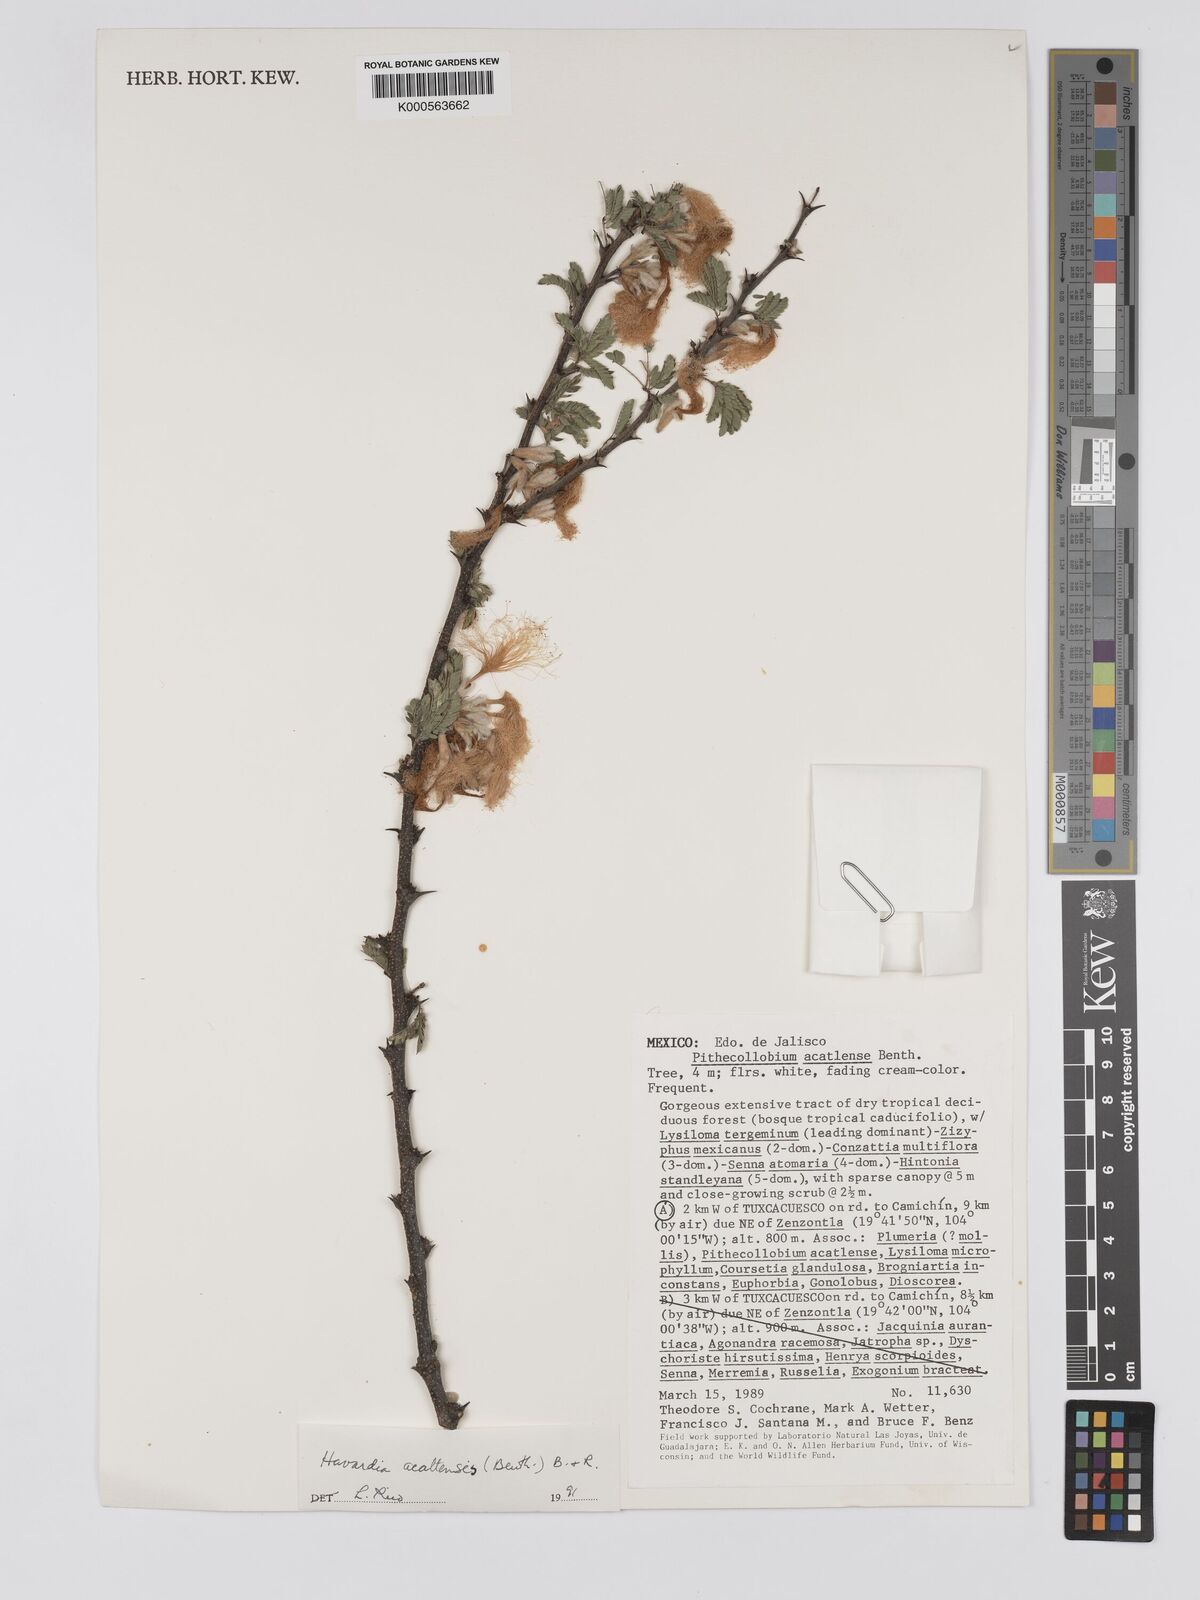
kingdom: Plantae
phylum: Tracheophyta
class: Magnoliopsida
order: Fabales
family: Fabaceae
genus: Havardia
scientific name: Havardia acatlensis
